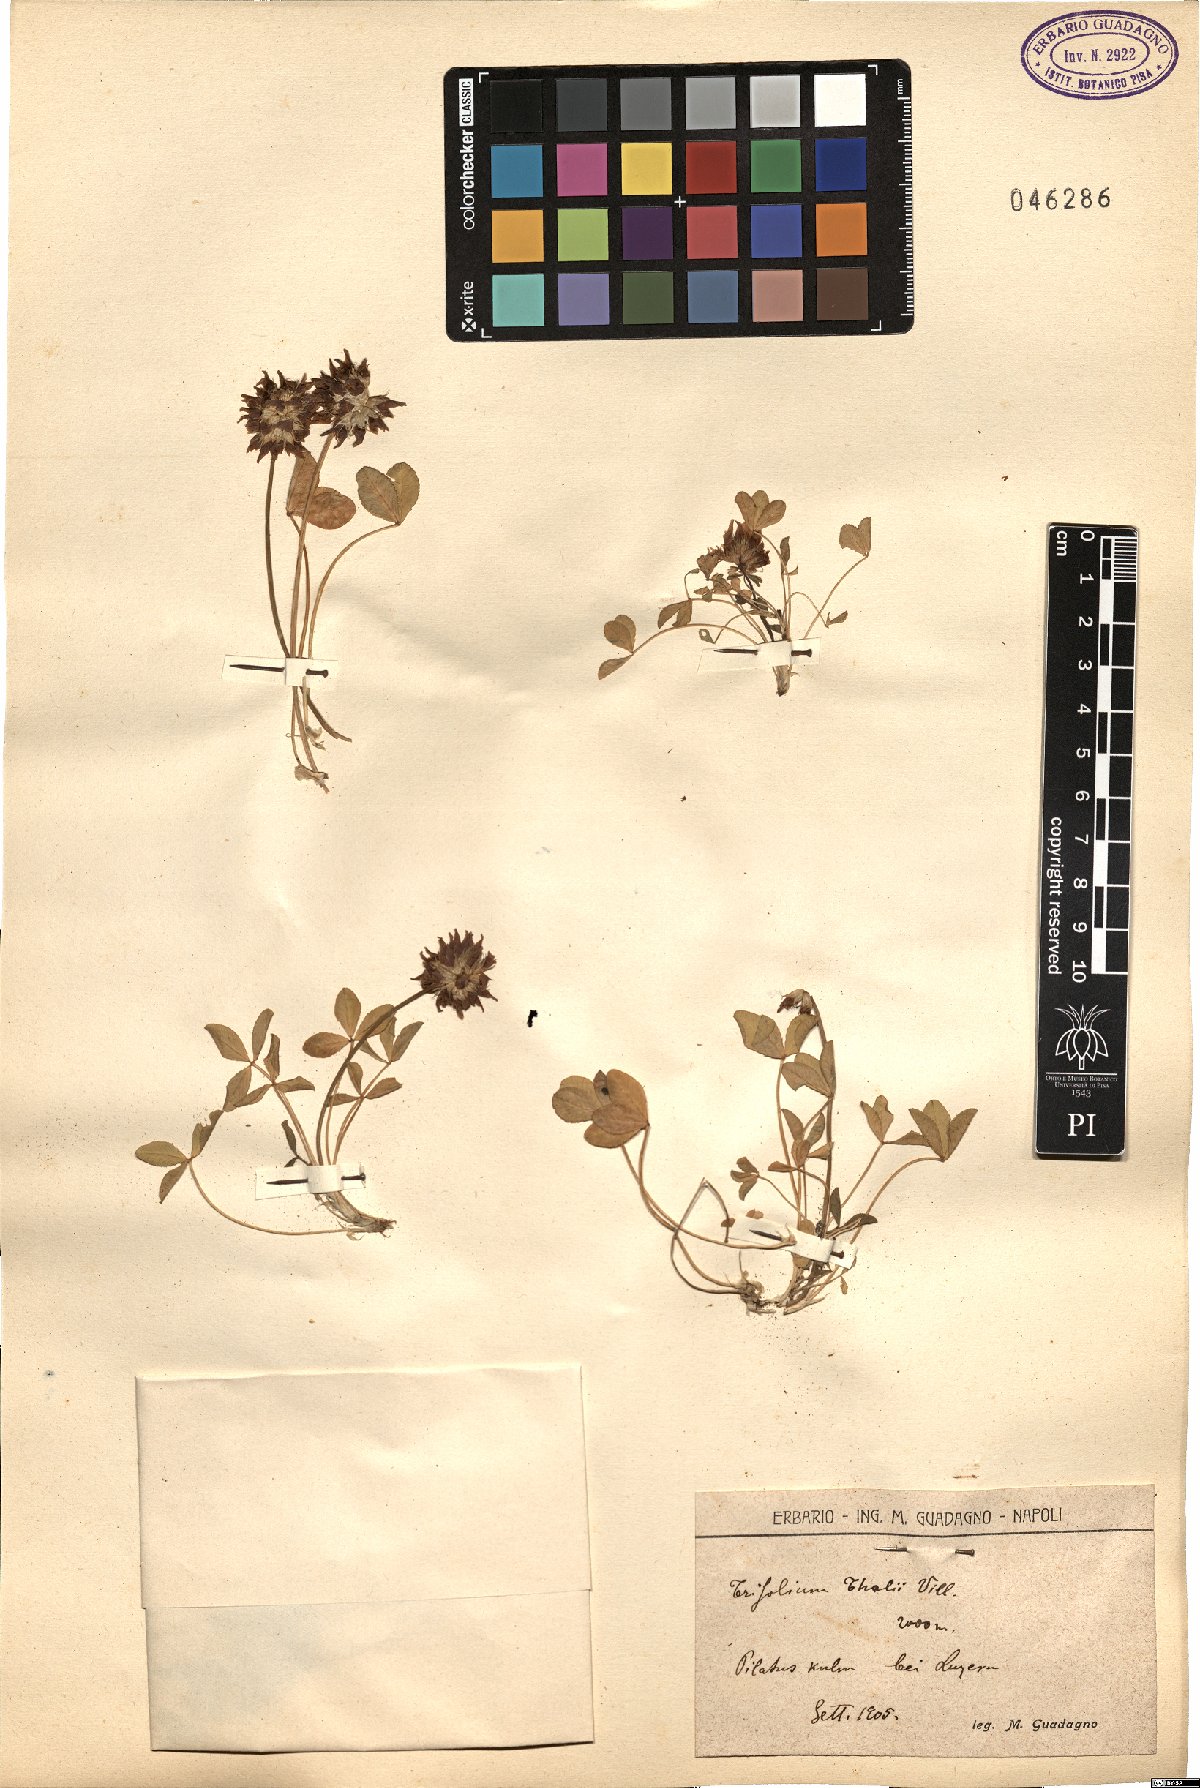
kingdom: Plantae
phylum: Tracheophyta
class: Magnoliopsida
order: Fabales
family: Fabaceae
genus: Trifolium
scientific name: Trifolium thalii
